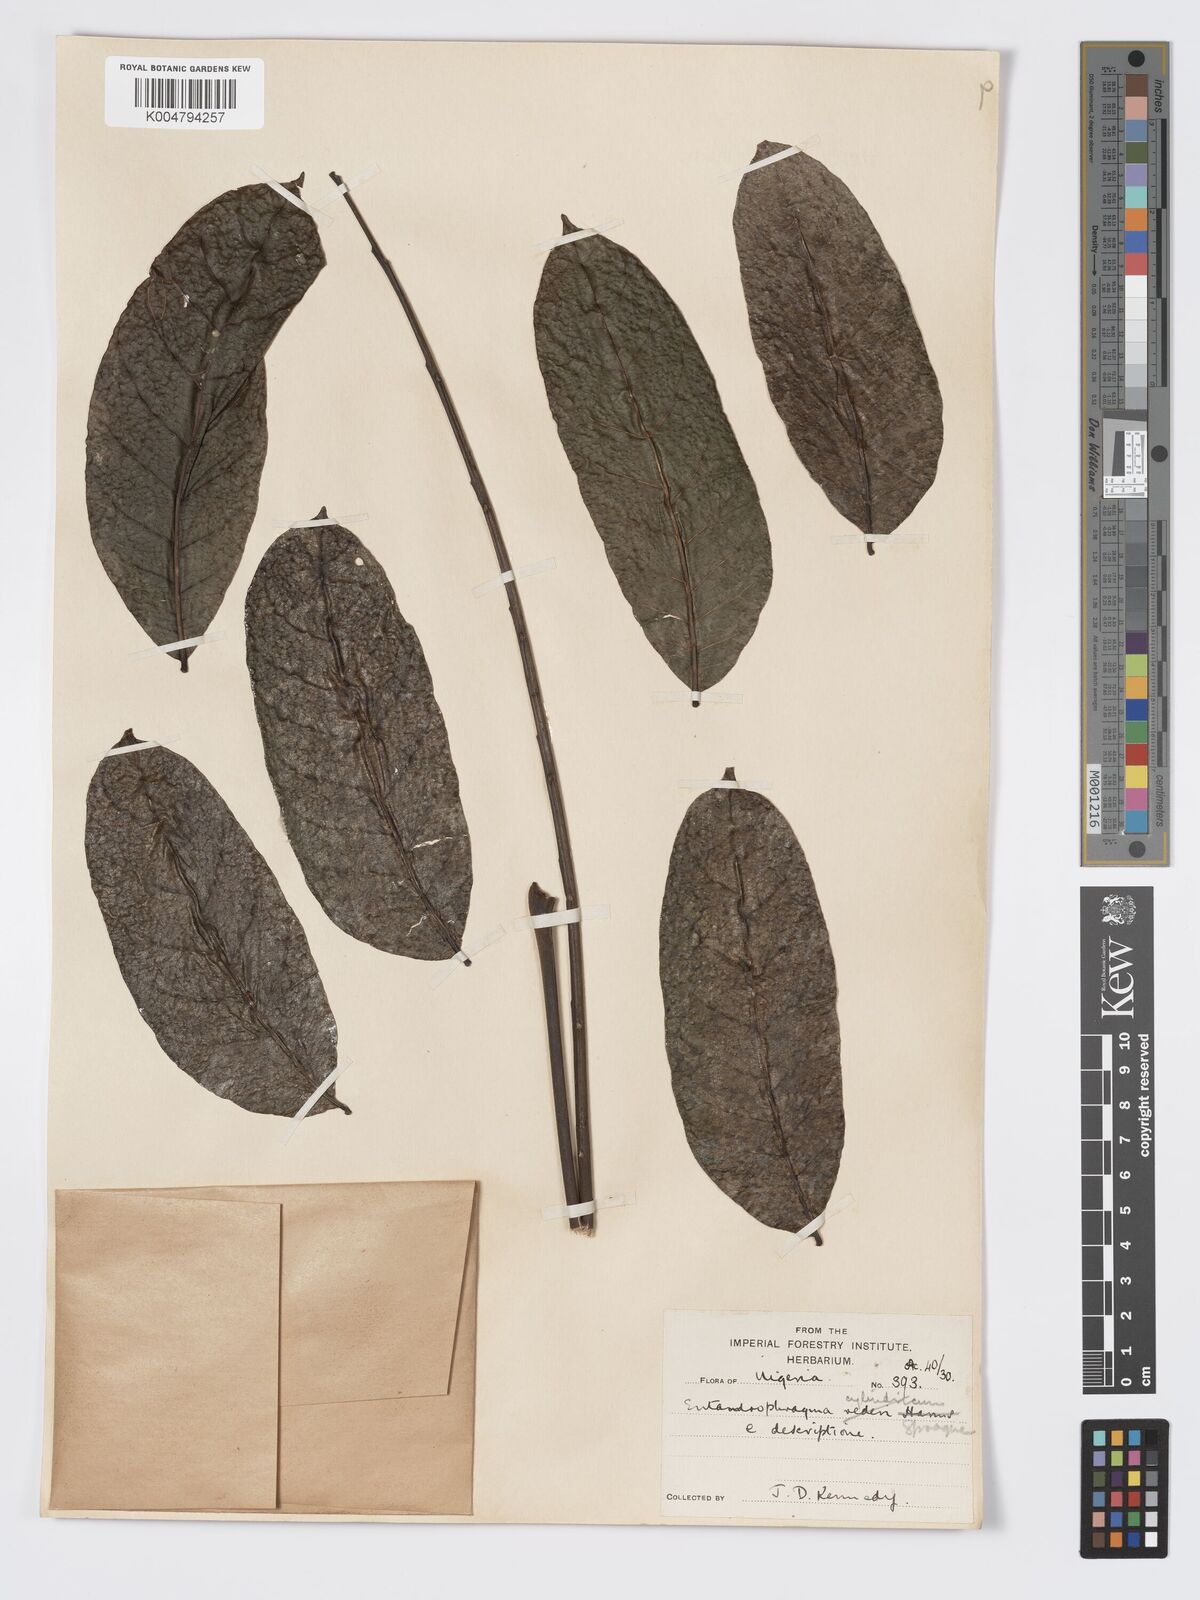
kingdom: Plantae
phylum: Tracheophyta
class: Magnoliopsida
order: Sapindales
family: Meliaceae
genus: Entandrophragma
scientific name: Entandrophragma cylindricum
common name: Sapele
